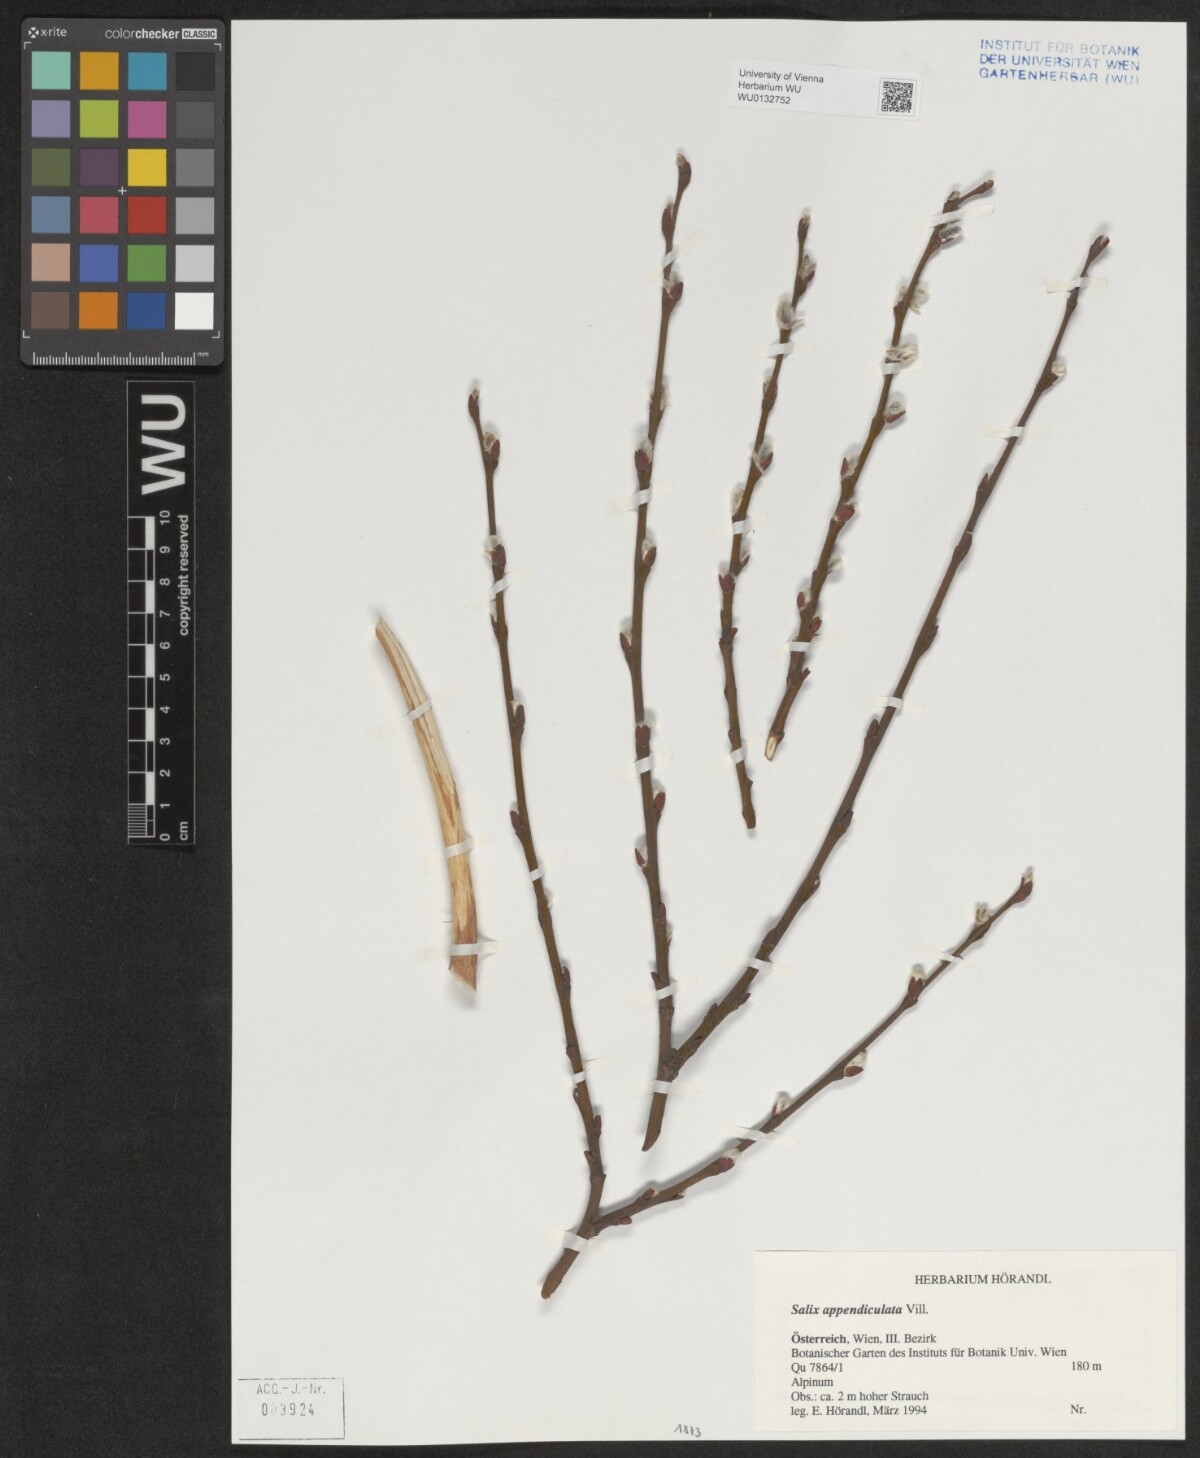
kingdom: Plantae
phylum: Tracheophyta
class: Magnoliopsida
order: Malpighiales
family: Salicaceae
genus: Salix
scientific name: Salix appendiculata
